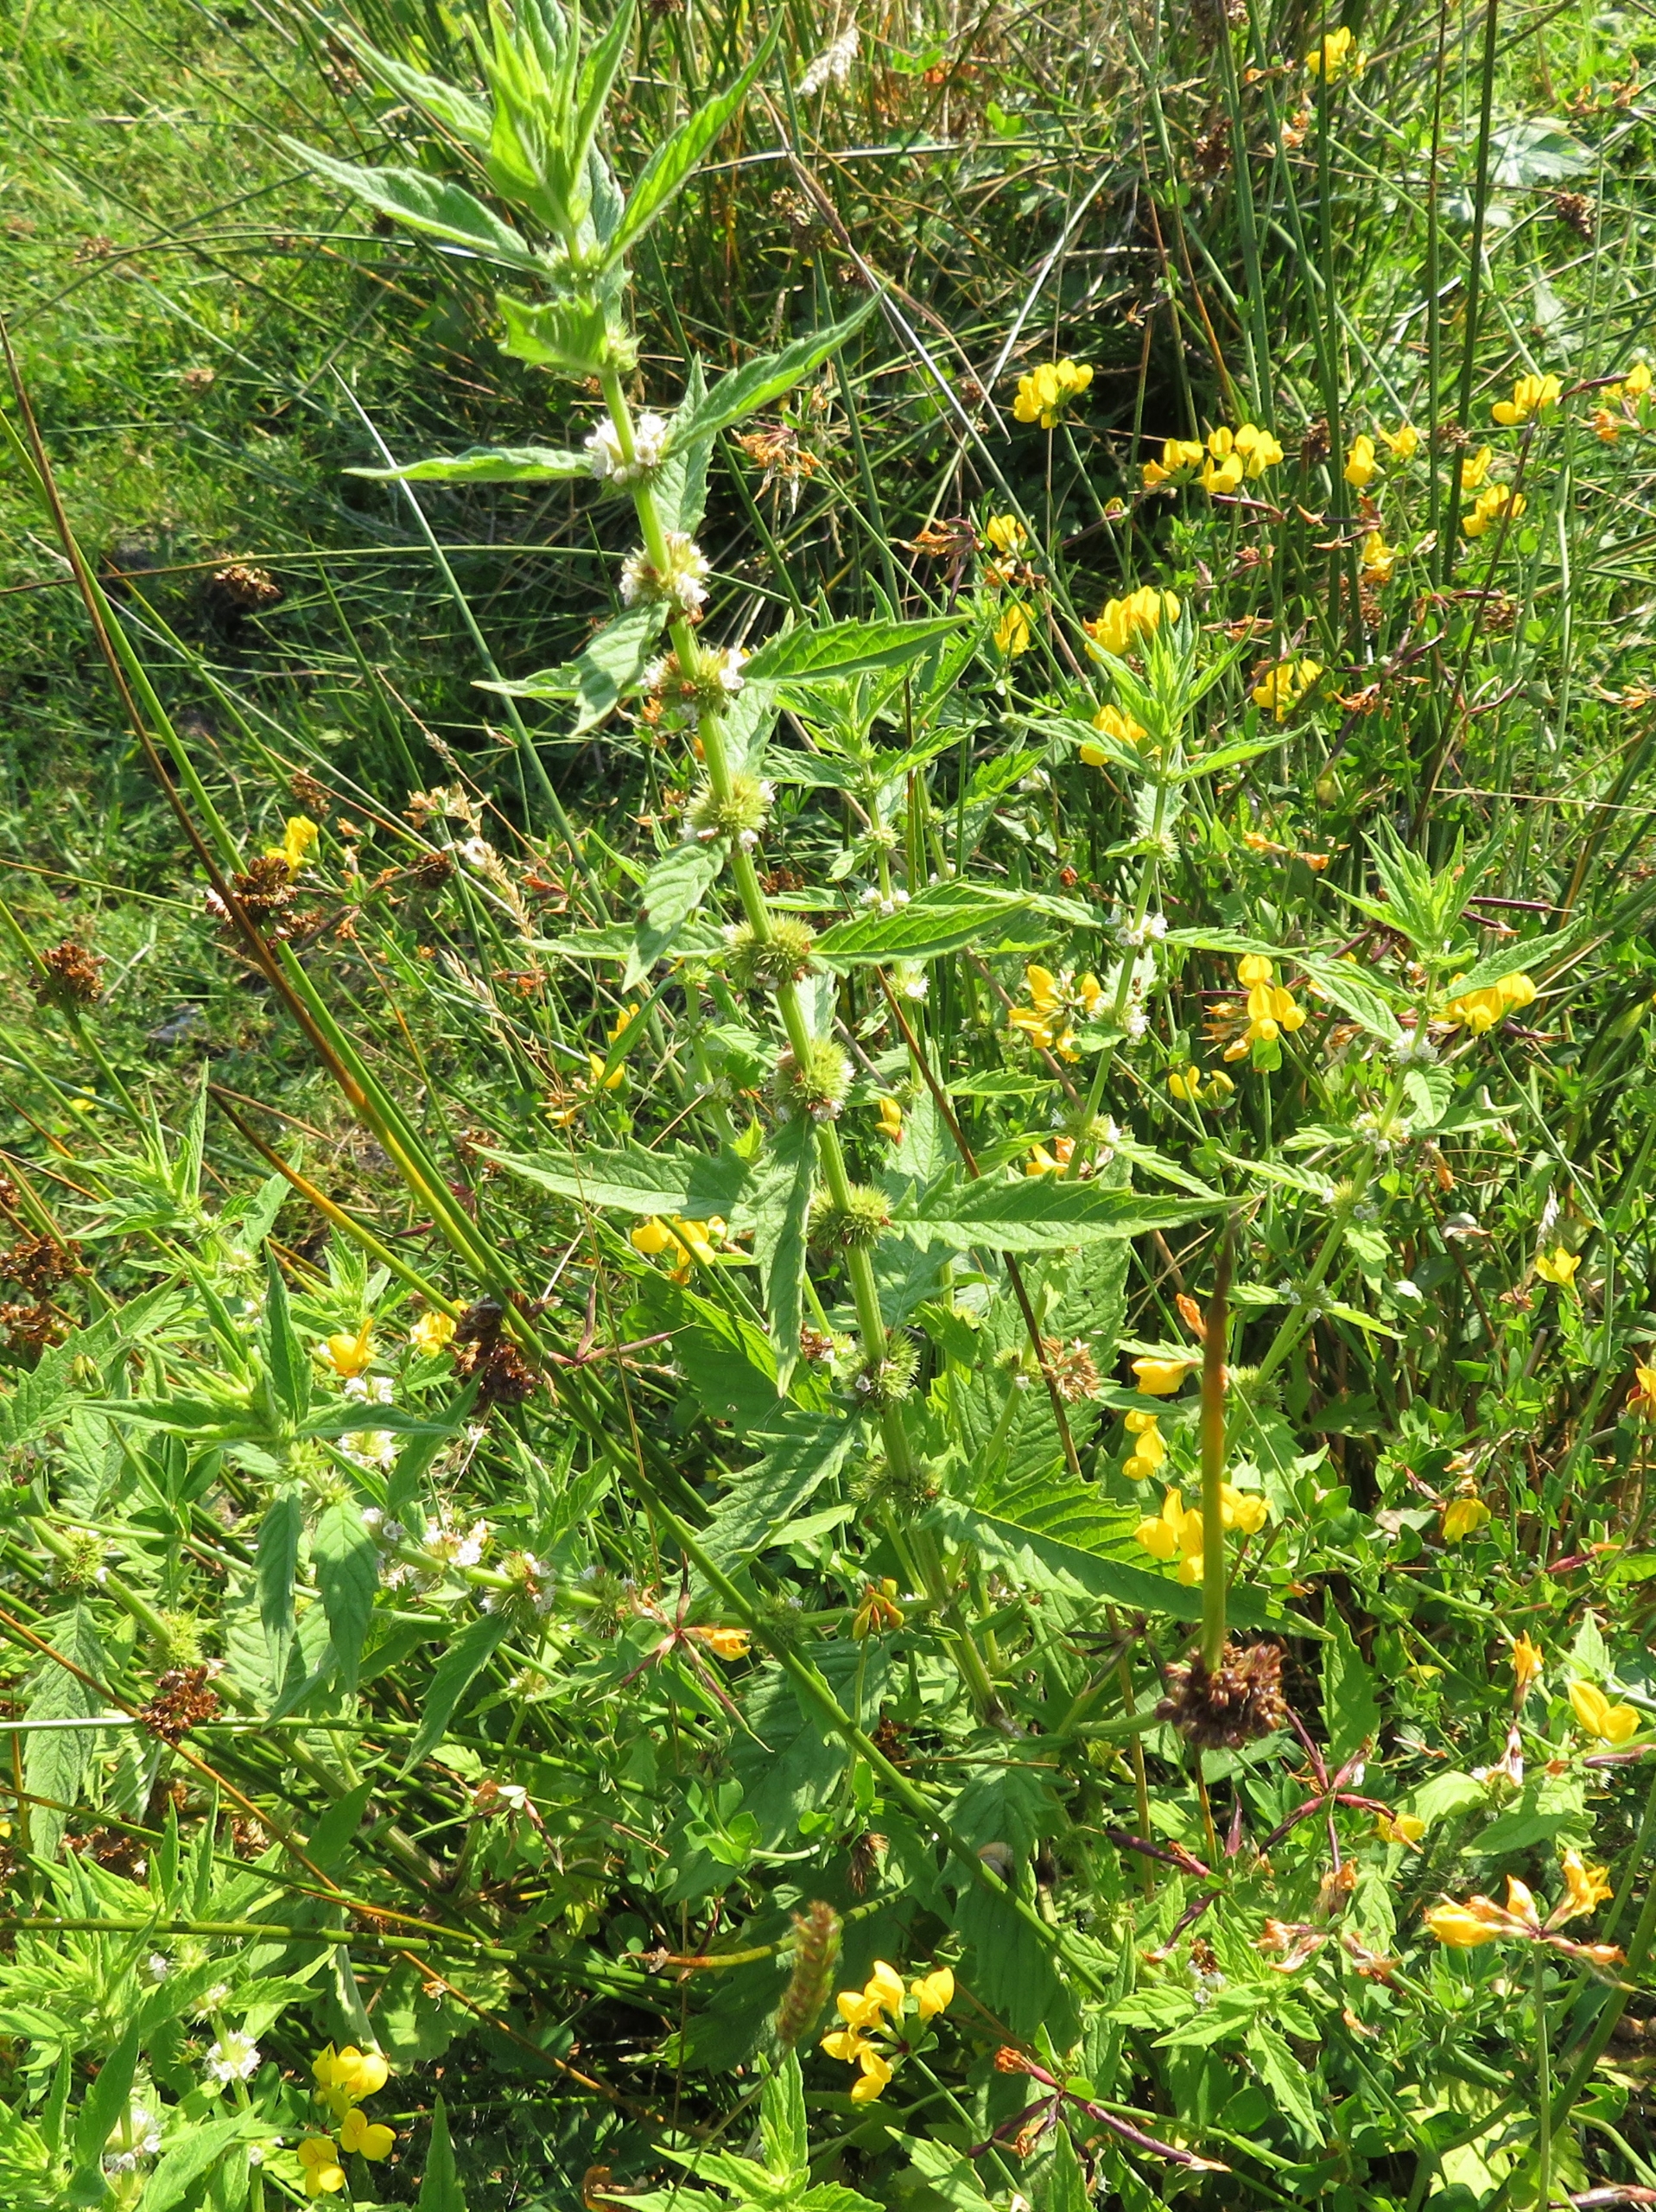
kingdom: Plantae
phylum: Tracheophyta
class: Magnoliopsida
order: Lamiales
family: Lamiaceae
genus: Lycopus
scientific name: Lycopus europaeus
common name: Sværtevæld
